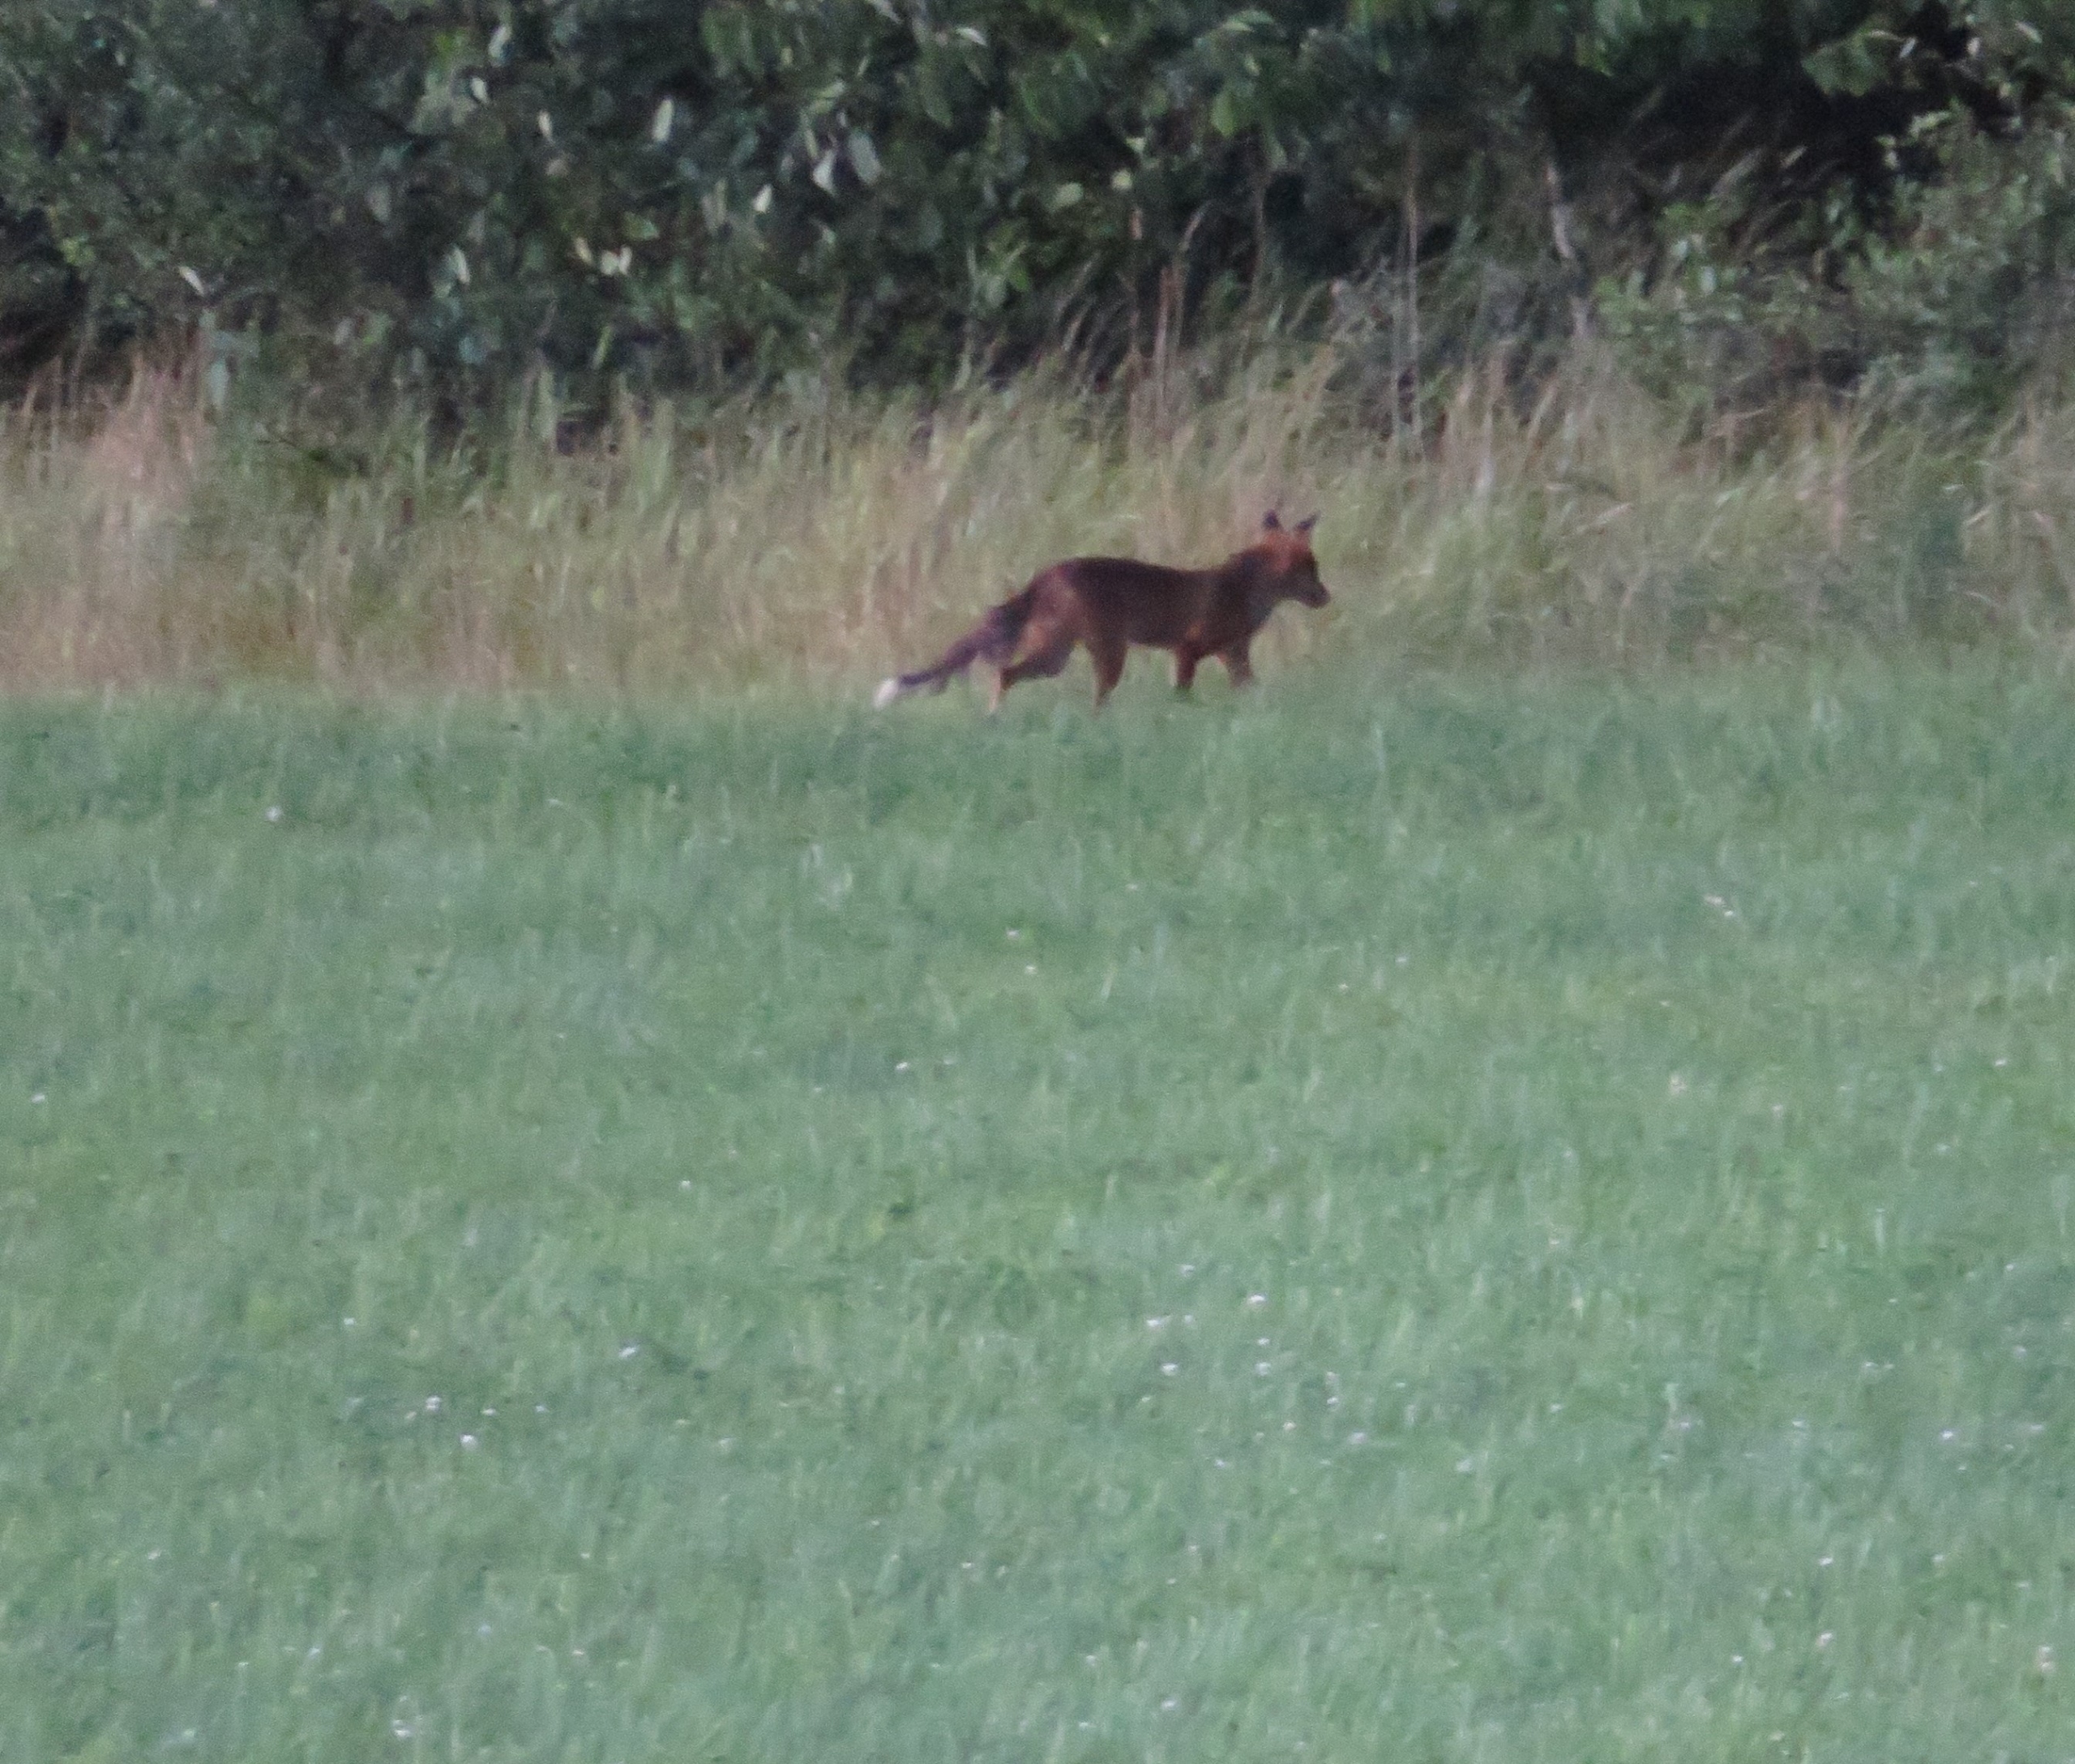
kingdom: Animalia
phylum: Chordata
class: Mammalia
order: Carnivora
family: Canidae
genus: Vulpes
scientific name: Vulpes vulpes
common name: Ræv
